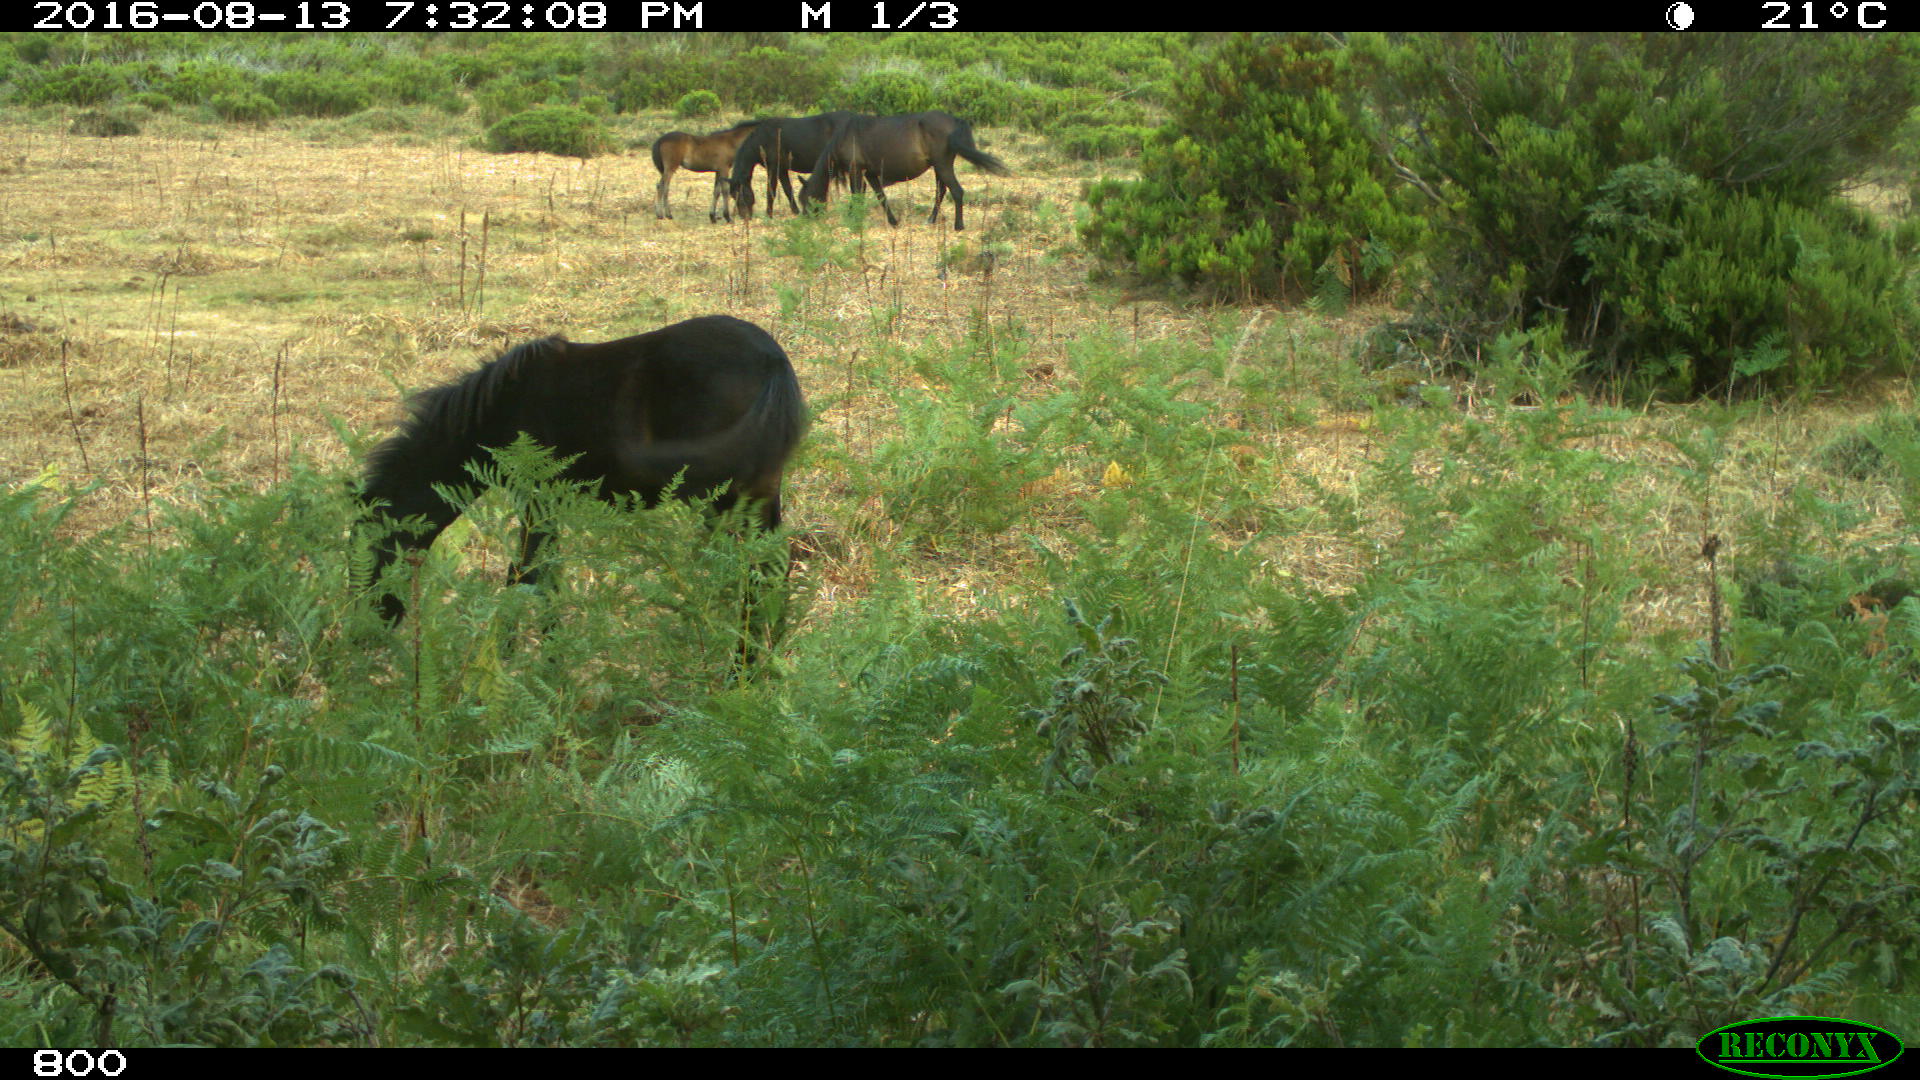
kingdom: Animalia
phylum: Chordata
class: Mammalia
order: Perissodactyla
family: Equidae
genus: Equus
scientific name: Equus caballus
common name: Horse
